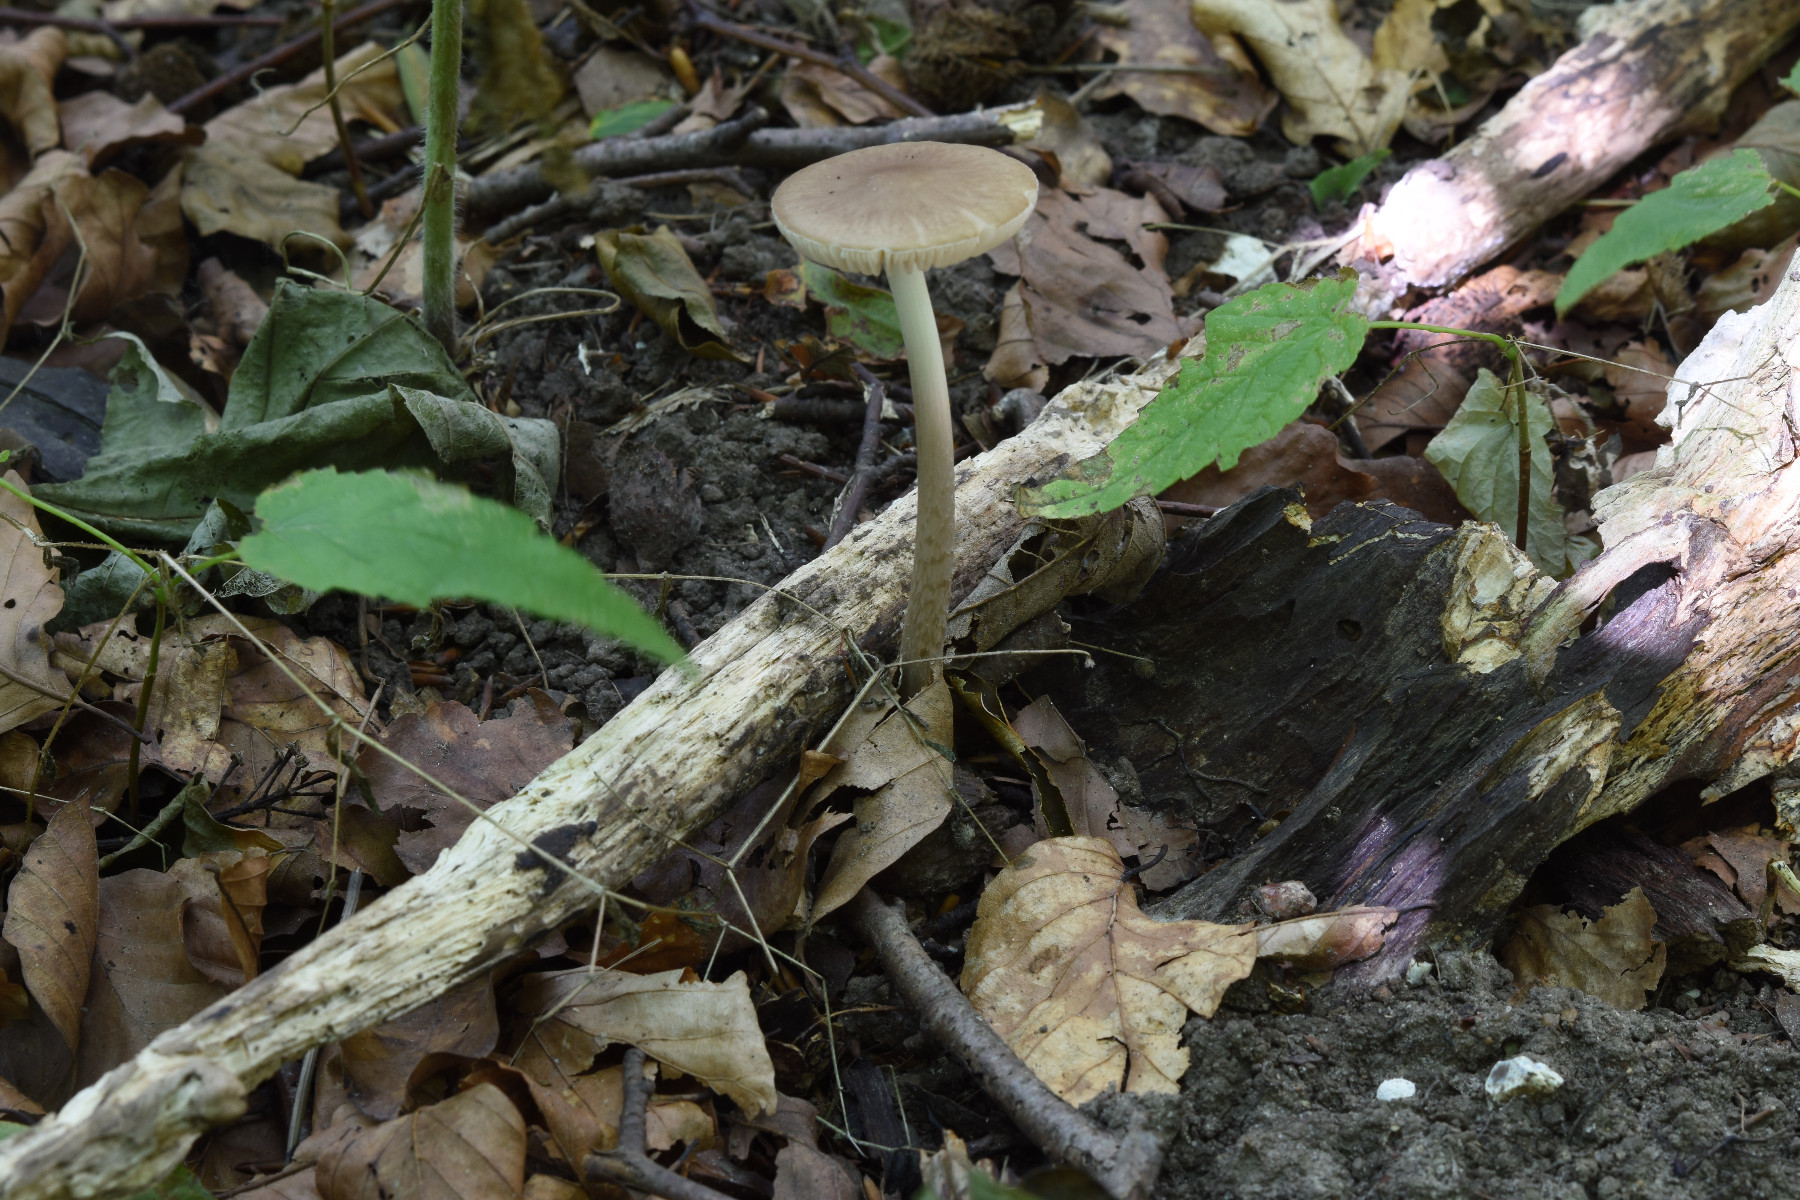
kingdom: Fungi
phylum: Basidiomycota
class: Agaricomycetes
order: Agaricales
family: Physalacriaceae
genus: Hymenopellis
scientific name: Hymenopellis radicata
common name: almindelig pælerodshat
